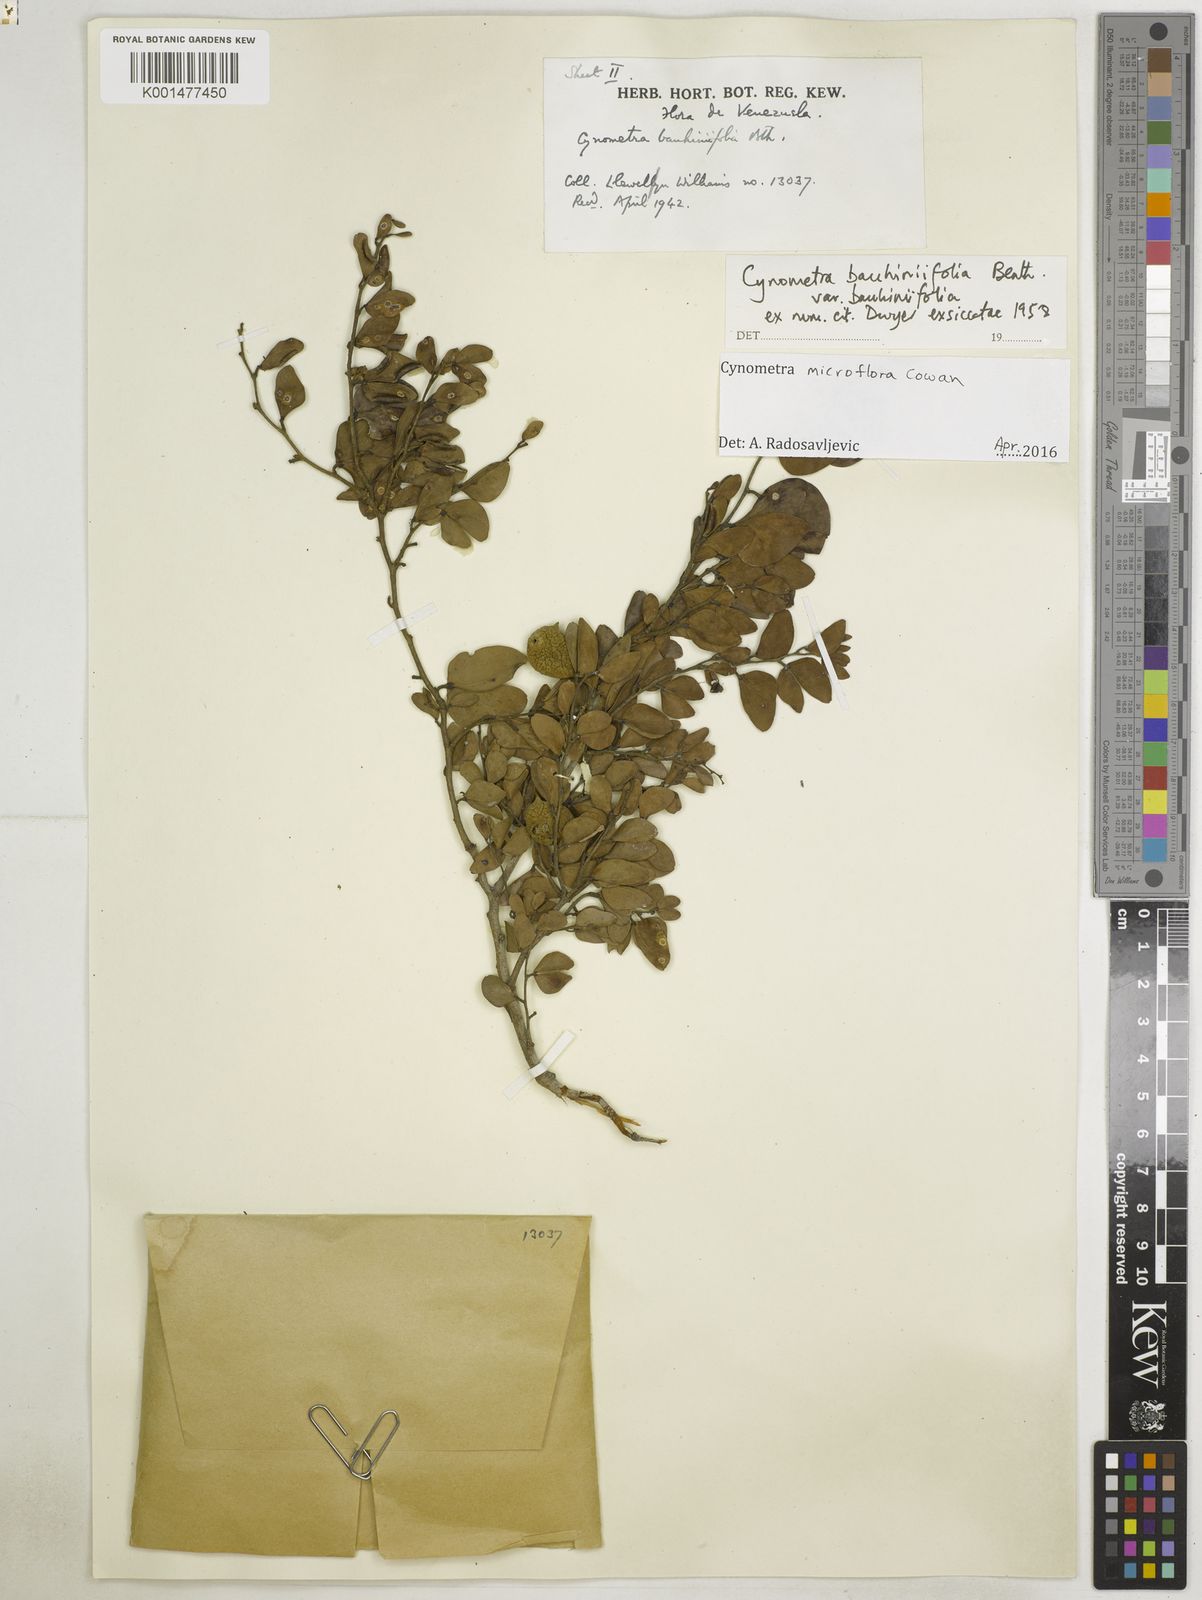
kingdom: Plantae
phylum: Tracheophyta
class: Magnoliopsida
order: Fabales
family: Fabaceae
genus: Cynometra
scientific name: Cynometra bauhiniifolia
